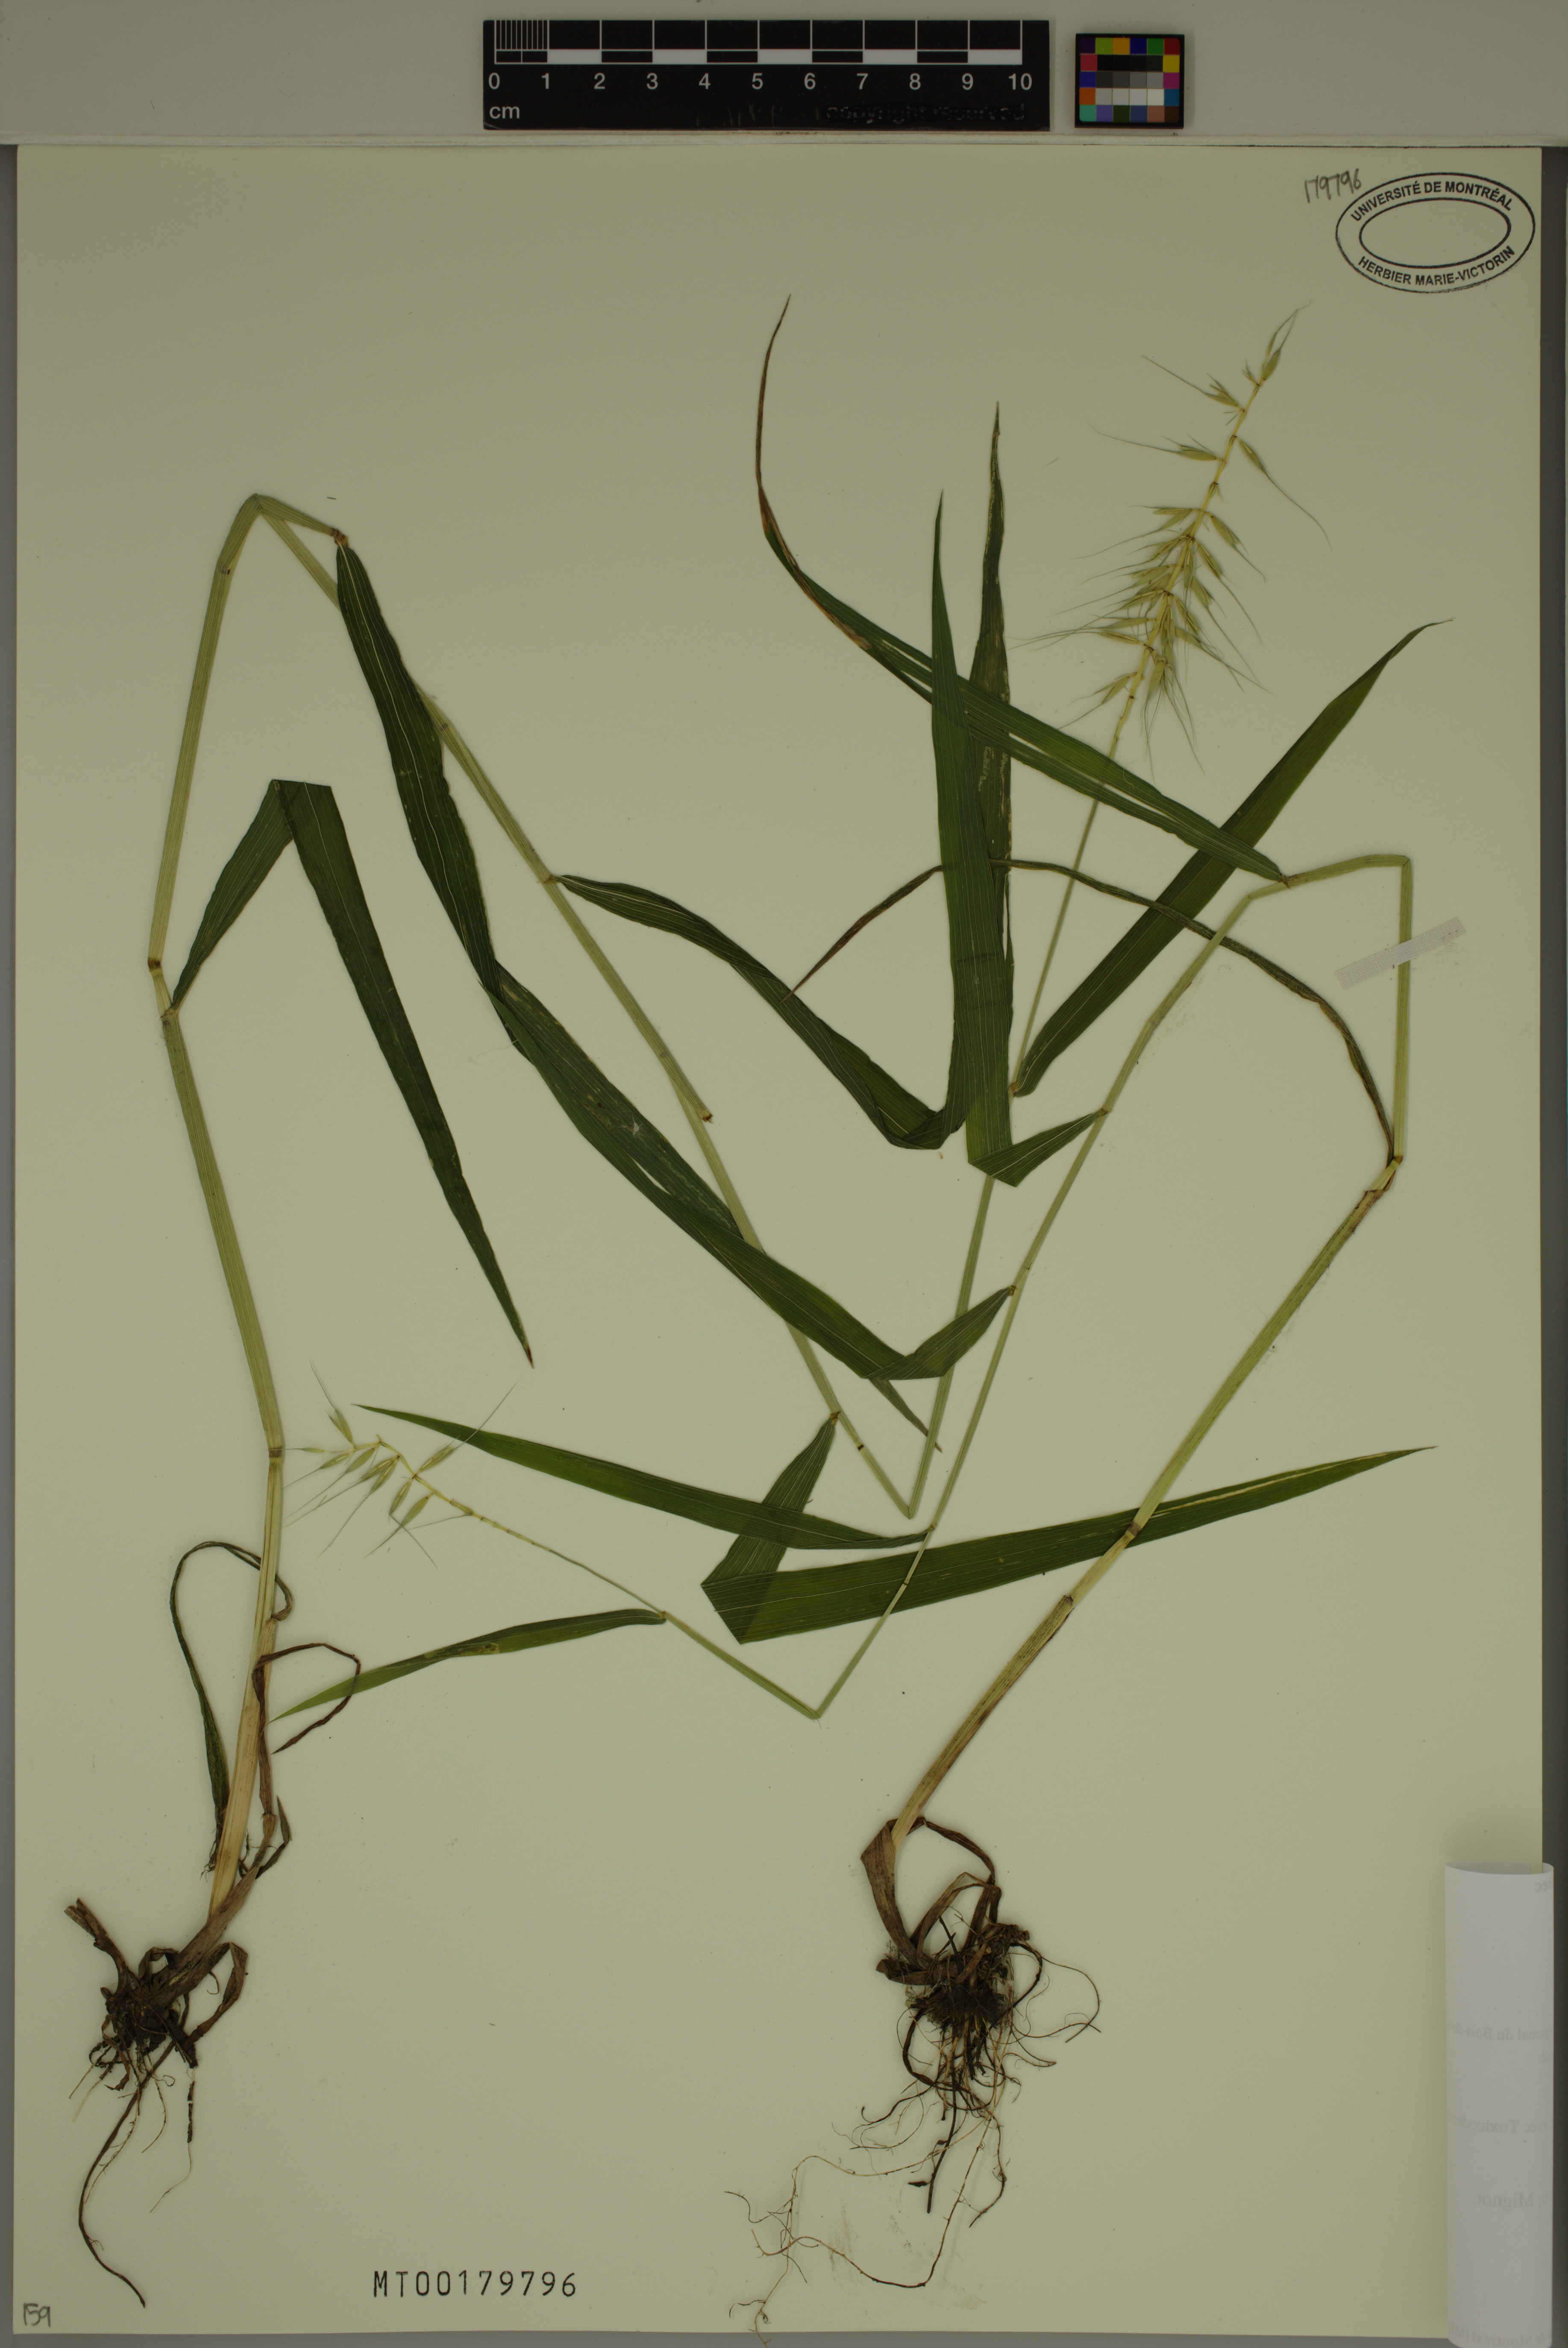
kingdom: Plantae
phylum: Tracheophyta
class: Liliopsida
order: Poales
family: Poaceae
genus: Elymus
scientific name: Elymus hystrix
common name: Bottlebrush grass
